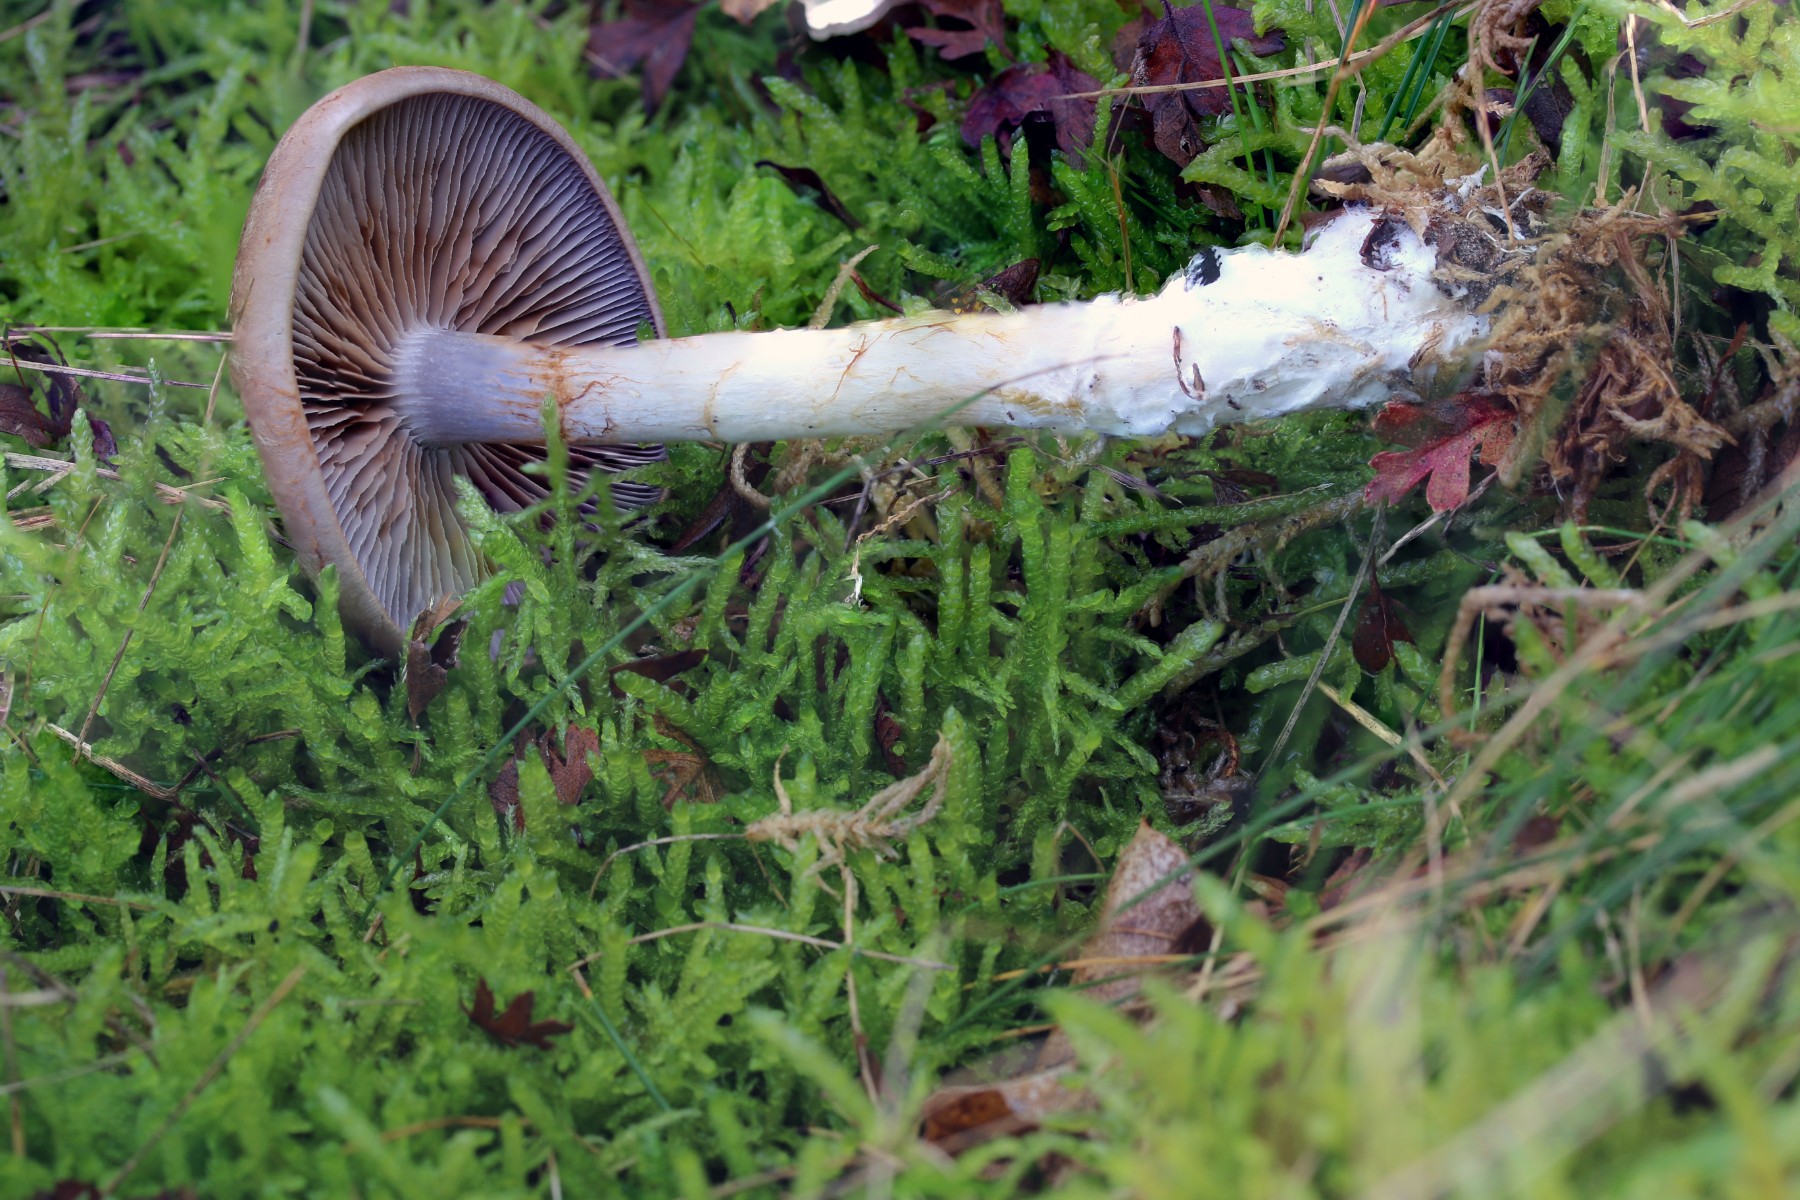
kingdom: Fungi
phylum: Basidiomycota
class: Agaricomycetes
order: Agaricales
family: Cortinariaceae
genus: Cortinarius
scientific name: Cortinarius
